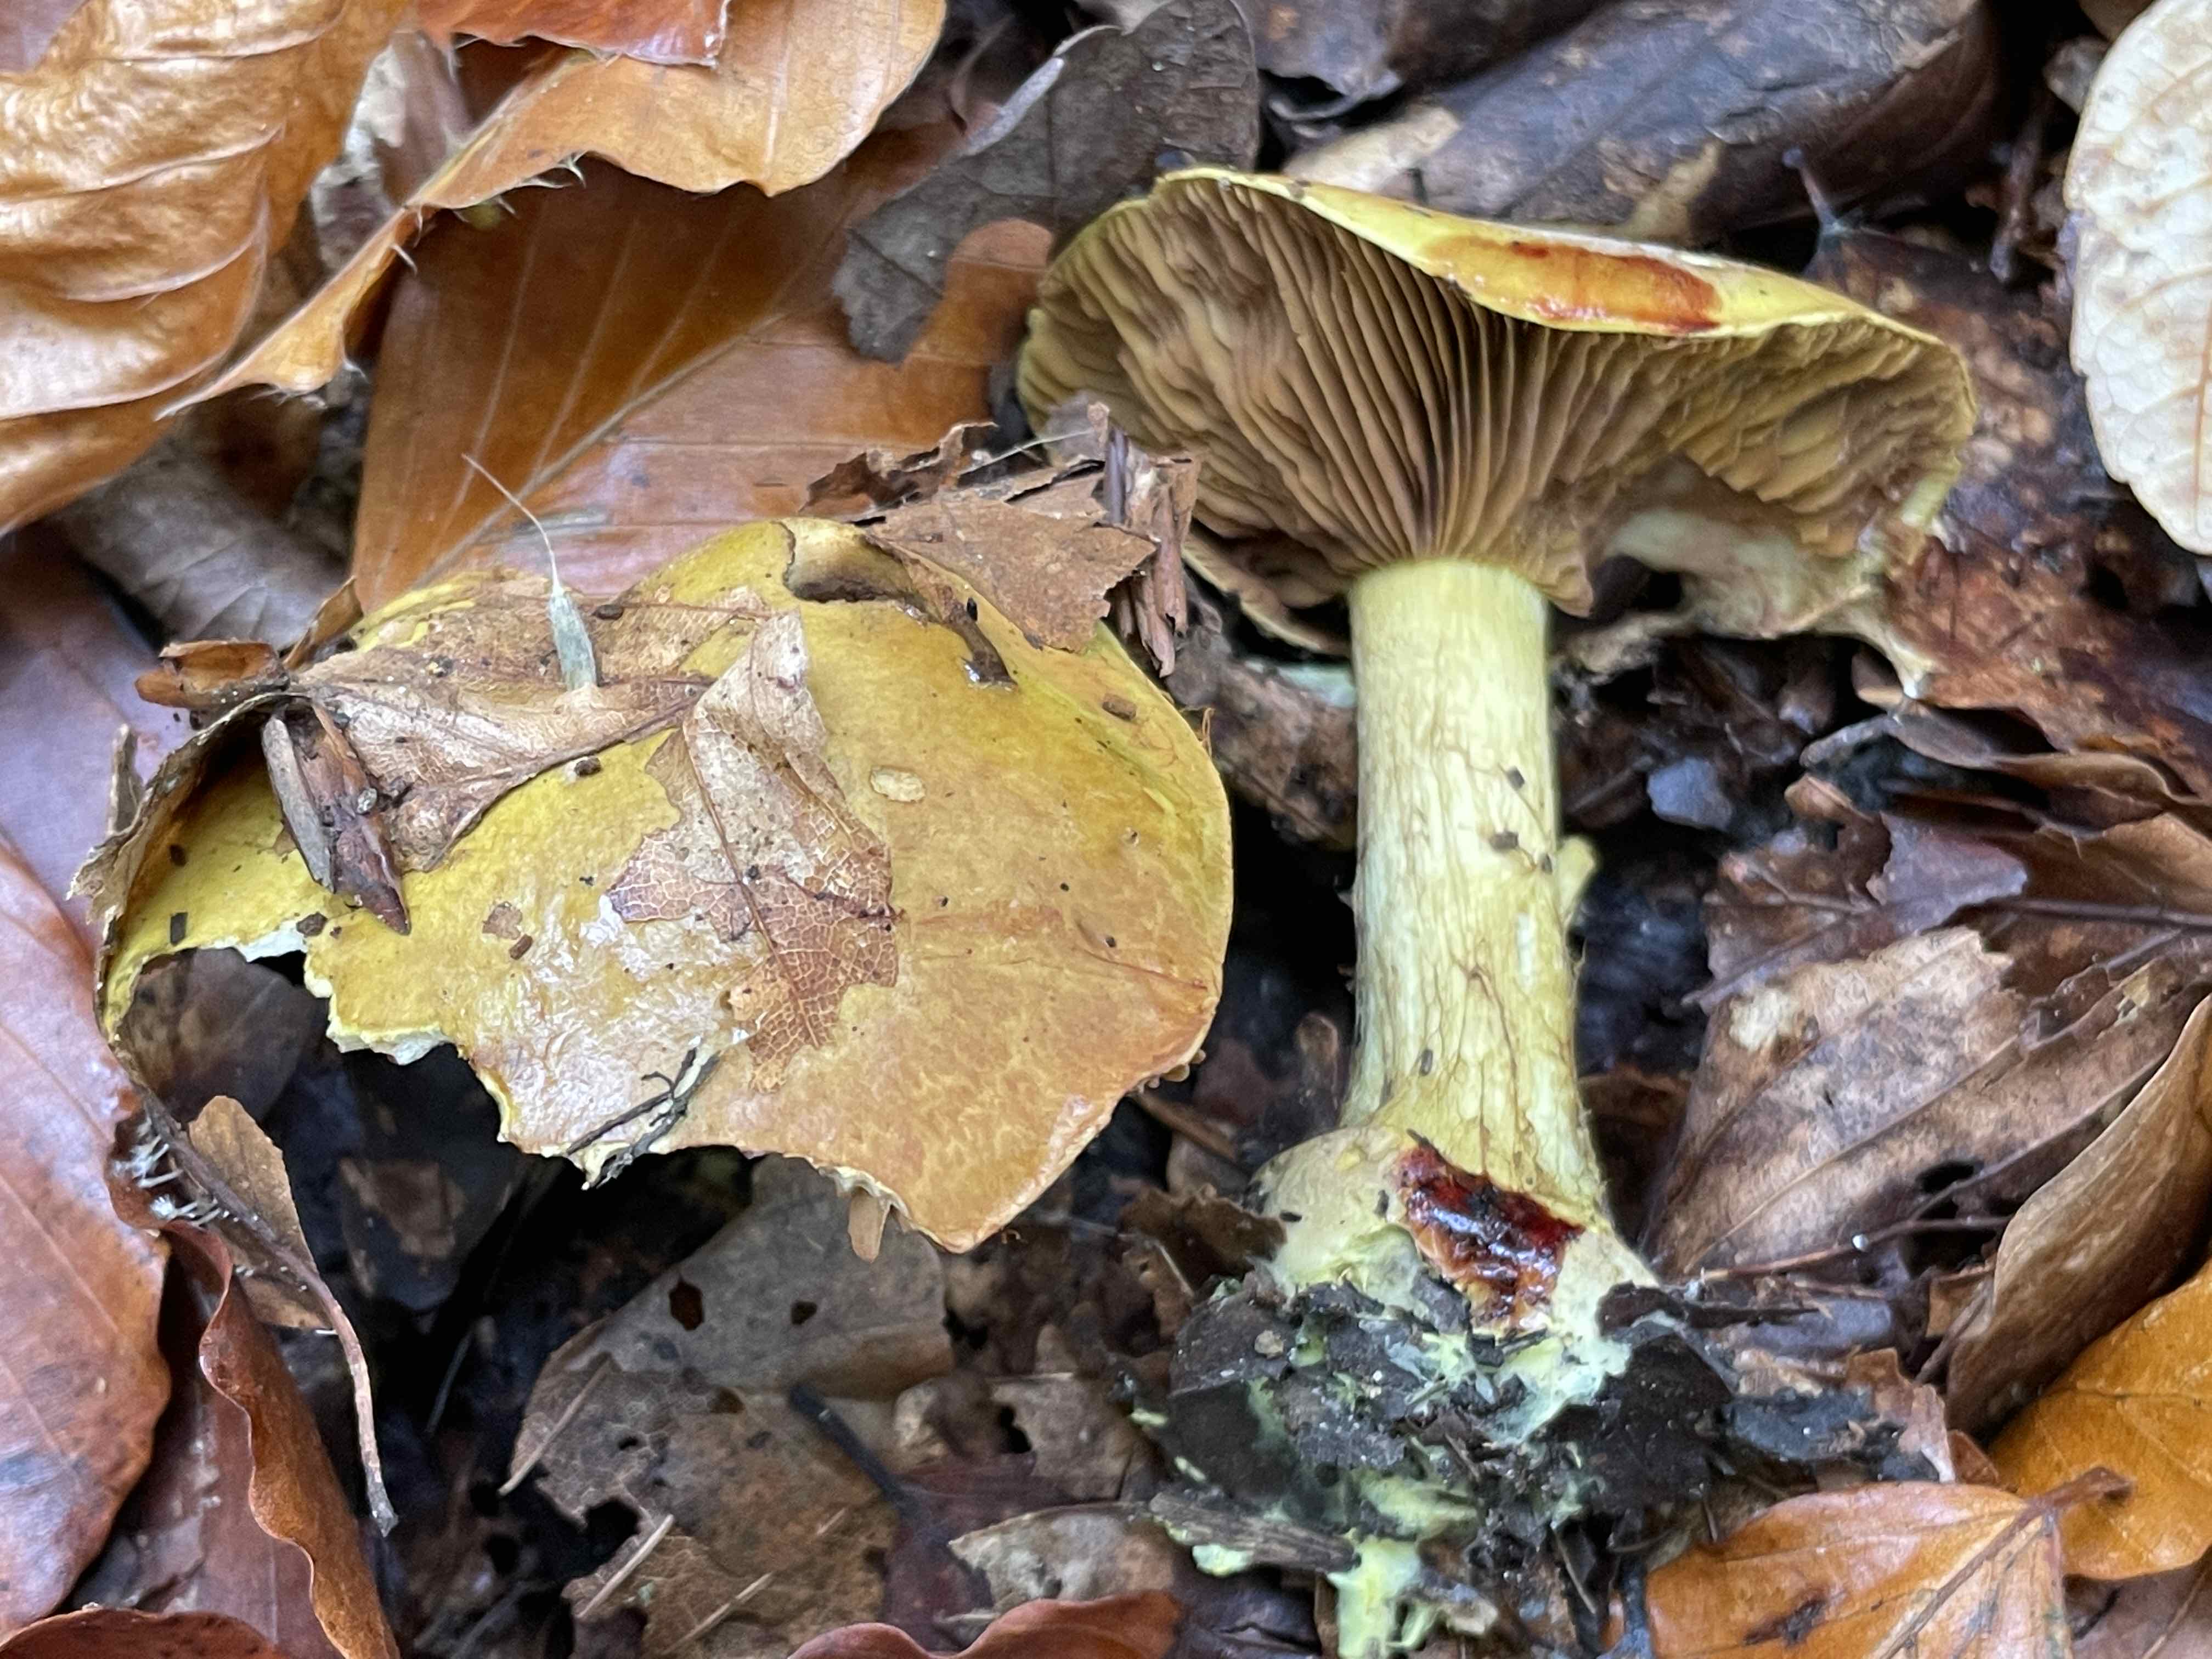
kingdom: Fungi
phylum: Basidiomycota
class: Agaricomycetes
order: Agaricales
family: Cortinariaceae
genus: Calonarius
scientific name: Calonarius odoratus
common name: krydret slørhat
